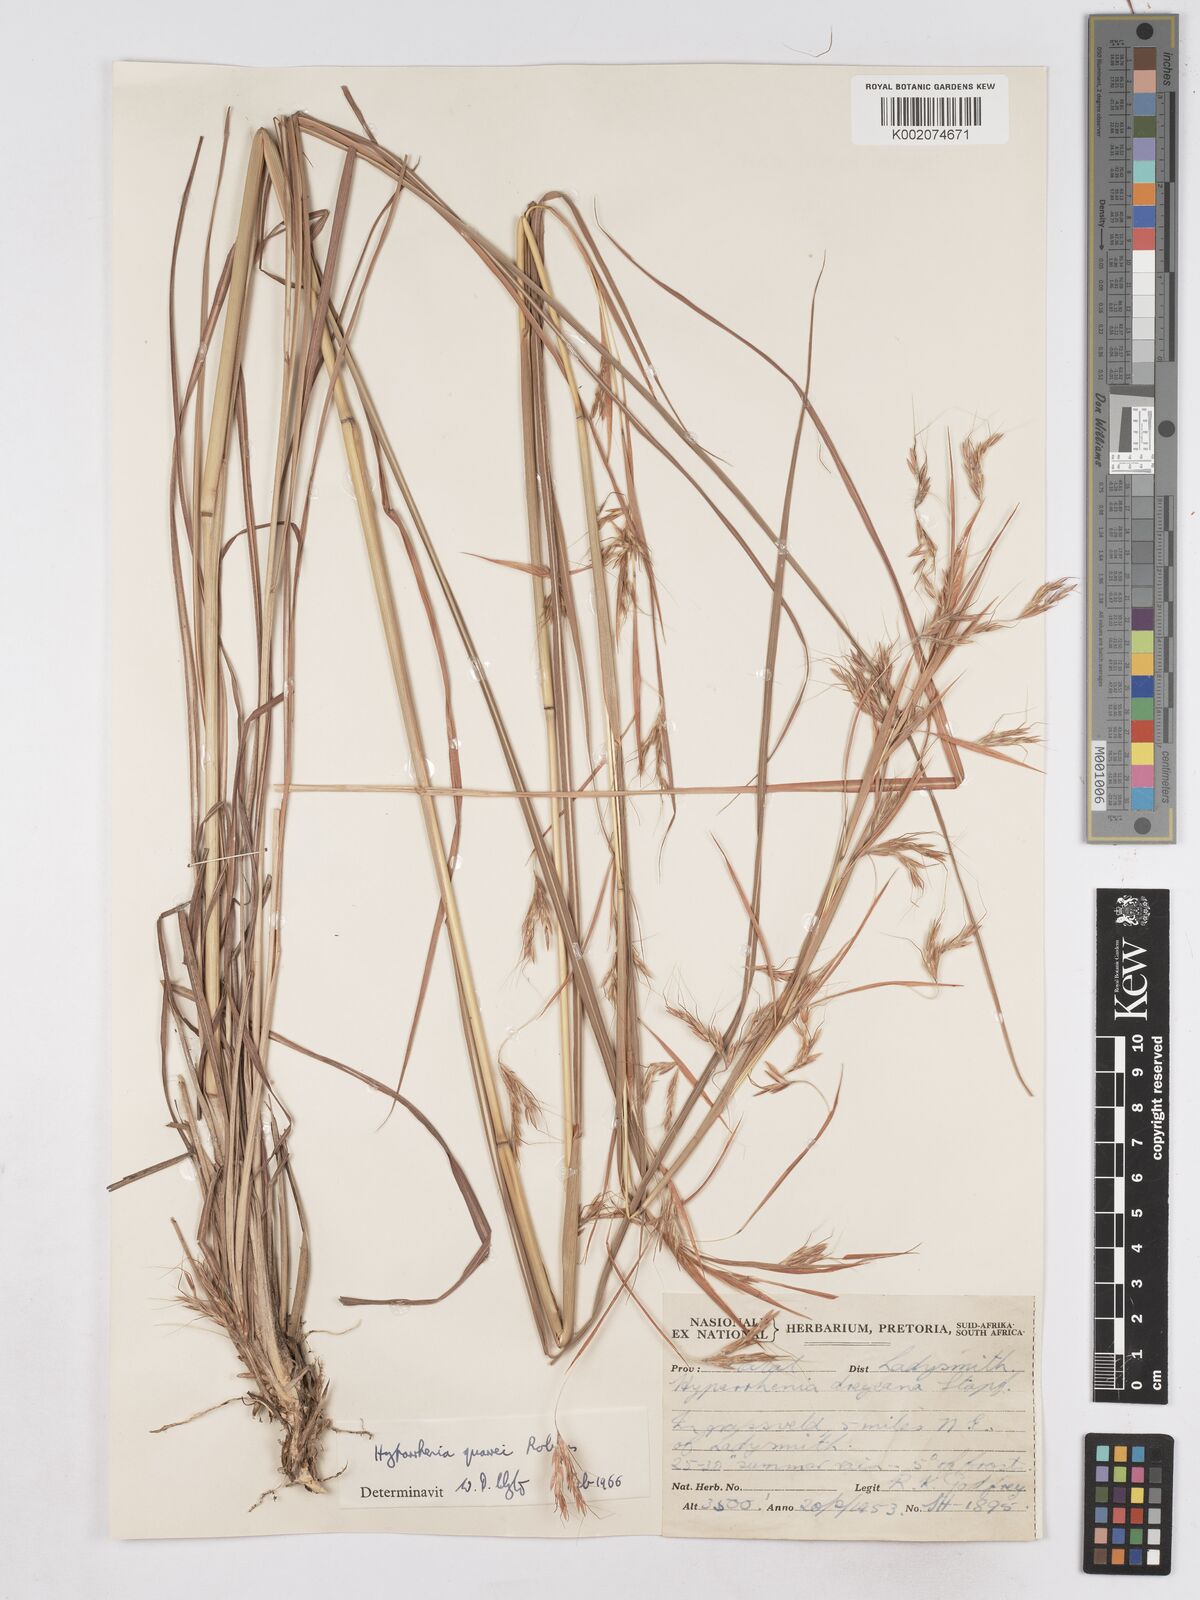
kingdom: Plantae
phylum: Tracheophyta
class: Liliopsida
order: Poales
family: Poaceae
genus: Hyparrhenia
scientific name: Hyparrhenia quarrei
